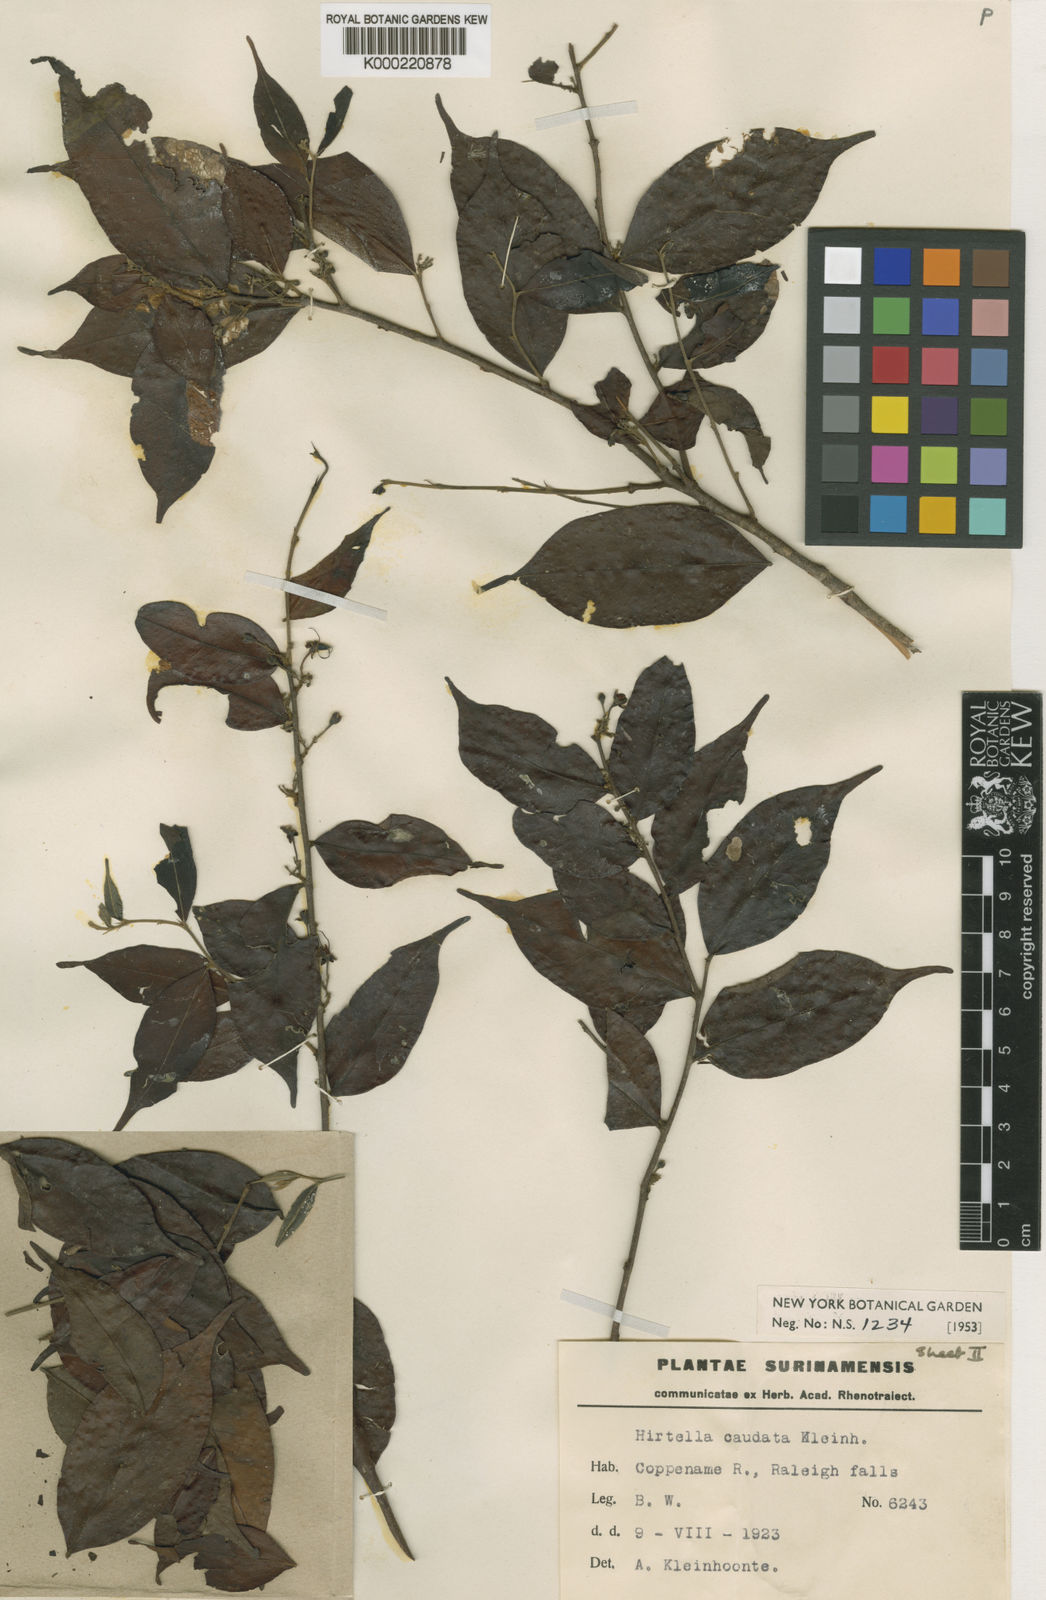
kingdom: Plantae
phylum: Tracheophyta
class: Magnoliopsida
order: Malpighiales
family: Chrysobalanaceae
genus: Hirtella
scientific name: Hirtella bicornis
